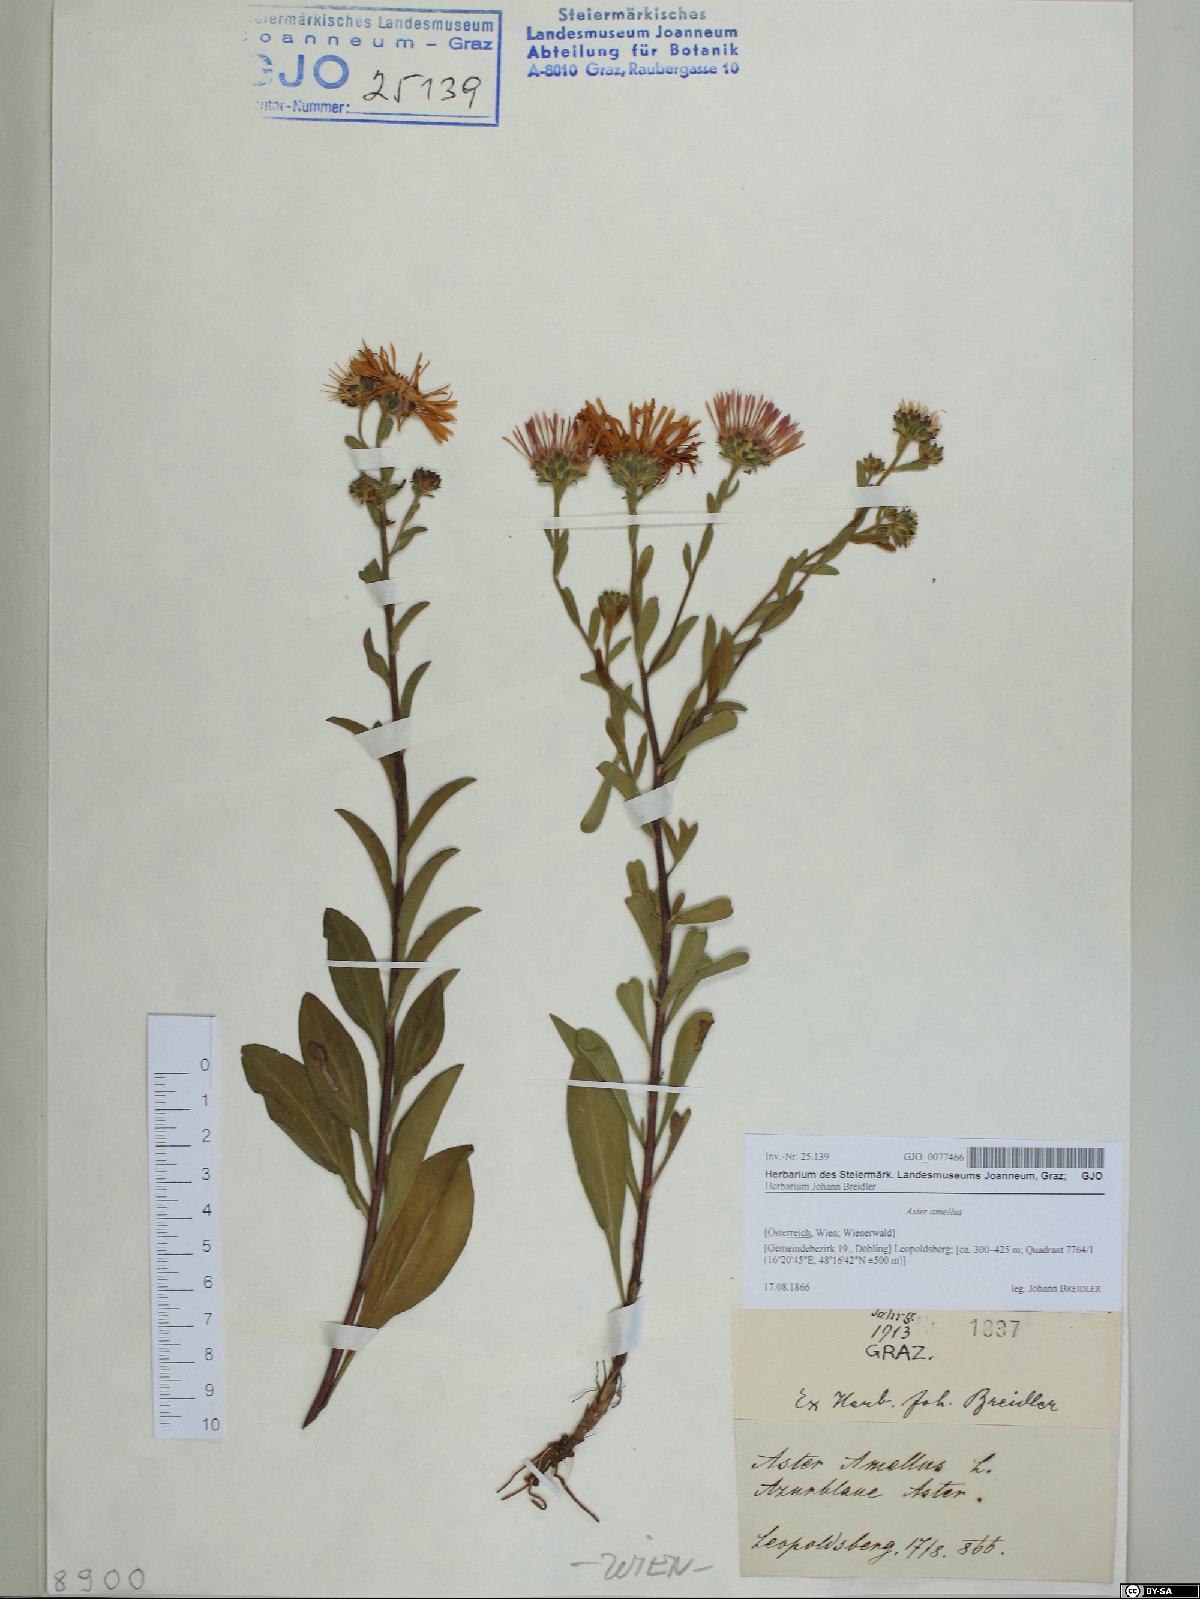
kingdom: Plantae
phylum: Tracheophyta
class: Magnoliopsida
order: Asterales
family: Asteraceae
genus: Aster
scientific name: Aster amellus
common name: European michaelmas daisy
